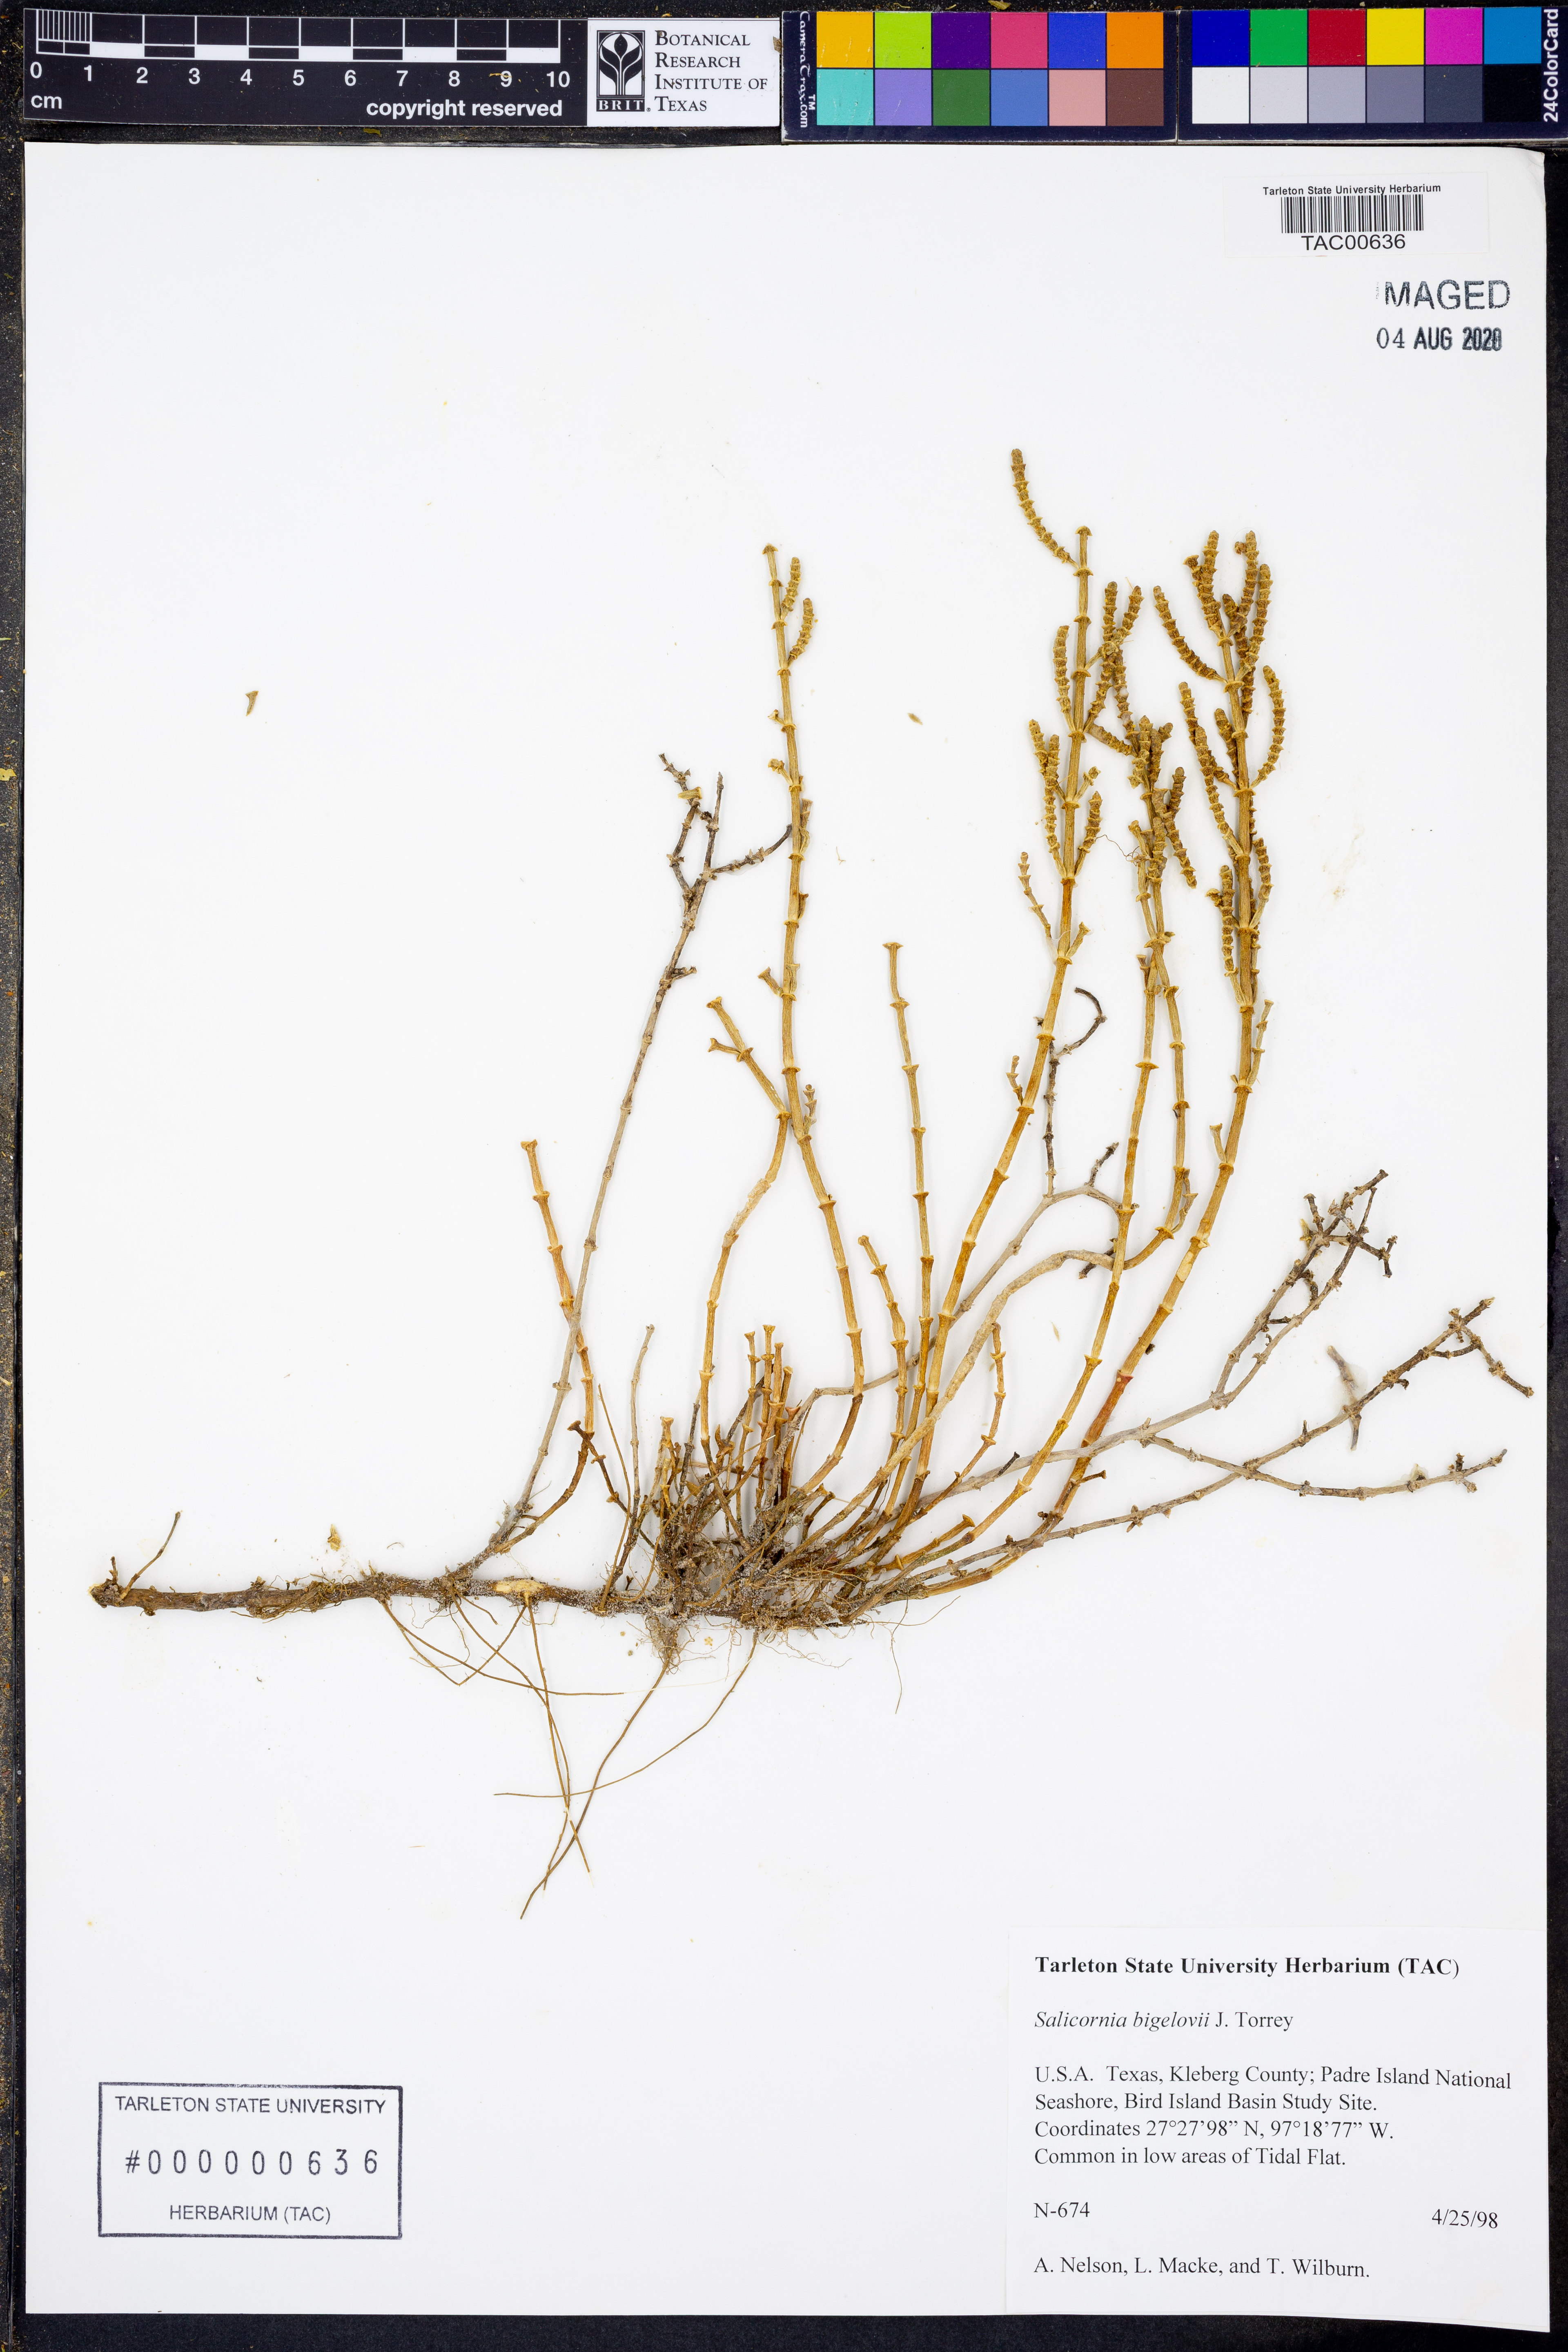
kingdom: Plantae
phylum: Tracheophyta
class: Magnoliopsida
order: Caryophyllales
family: Amaranthaceae
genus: Salicornia
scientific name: Salicornia bigelovii
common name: Dwarf glasswort
